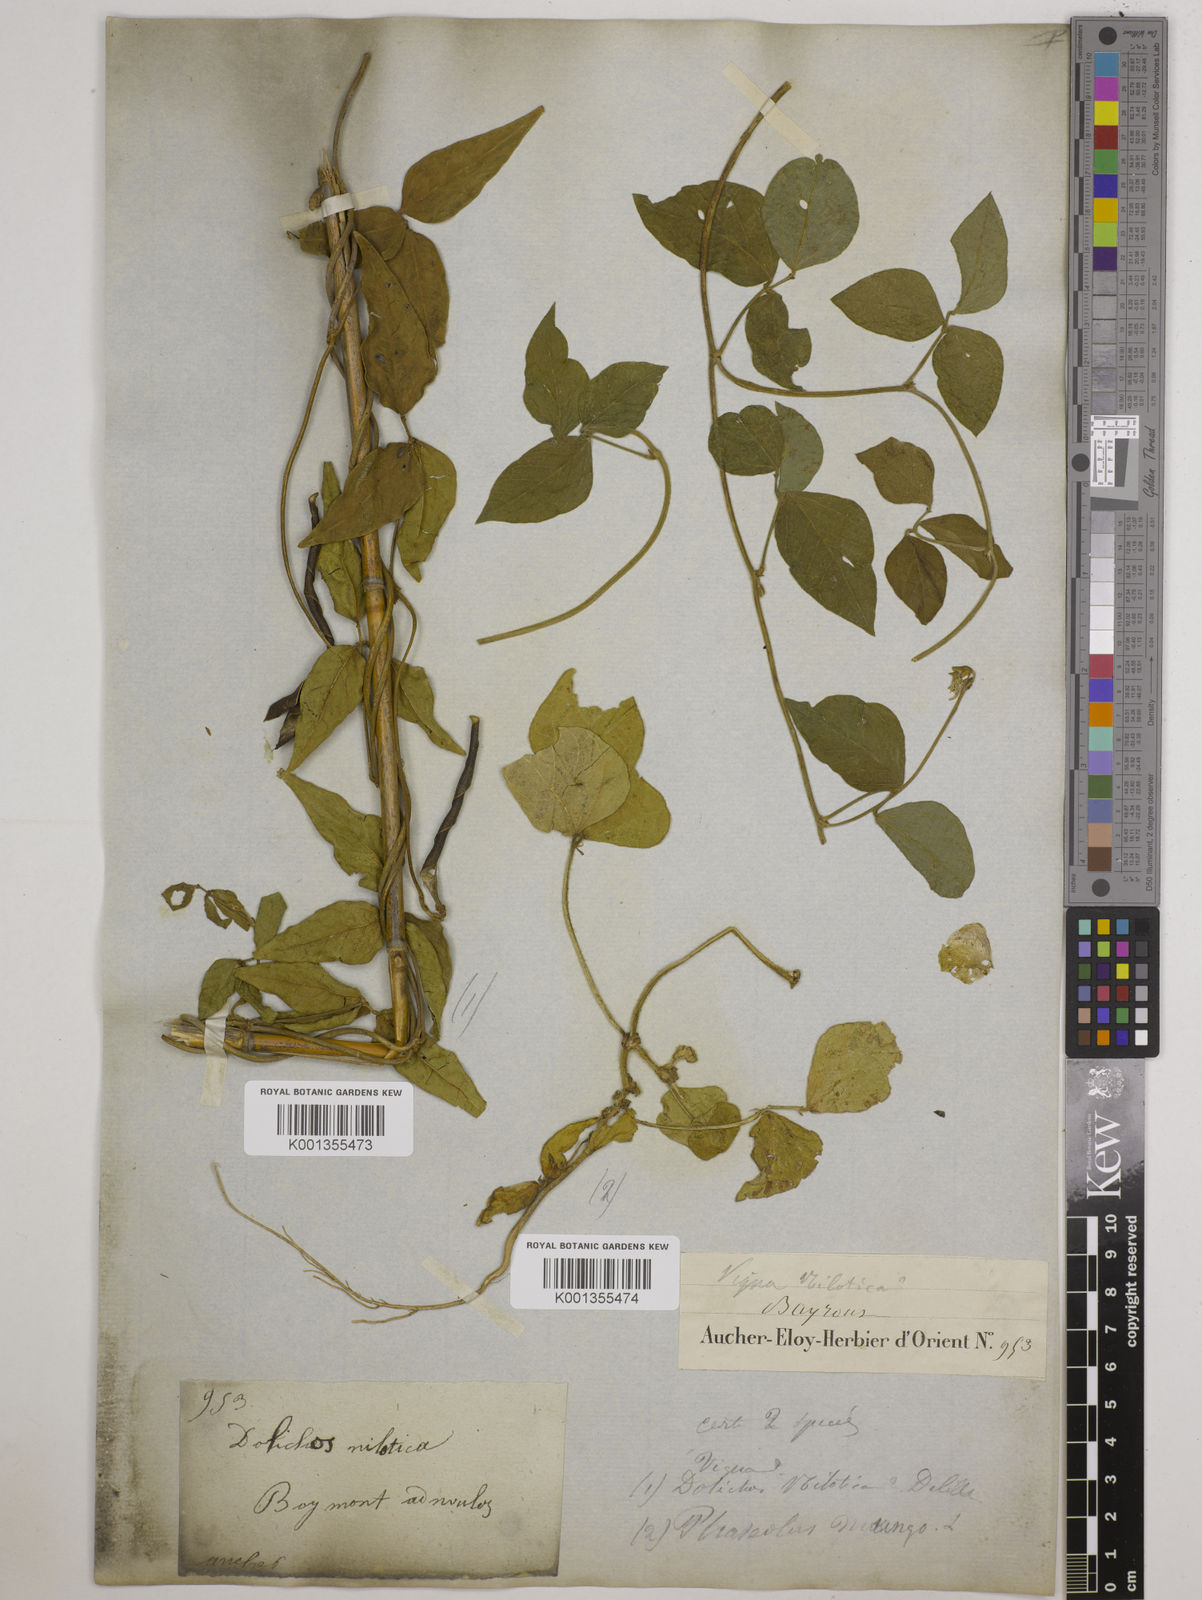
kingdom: Plantae
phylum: Tracheophyta
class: Magnoliopsida
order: Fabales
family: Fabaceae
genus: Vigna
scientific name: Vigna luteola
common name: Hairypod cowpea
